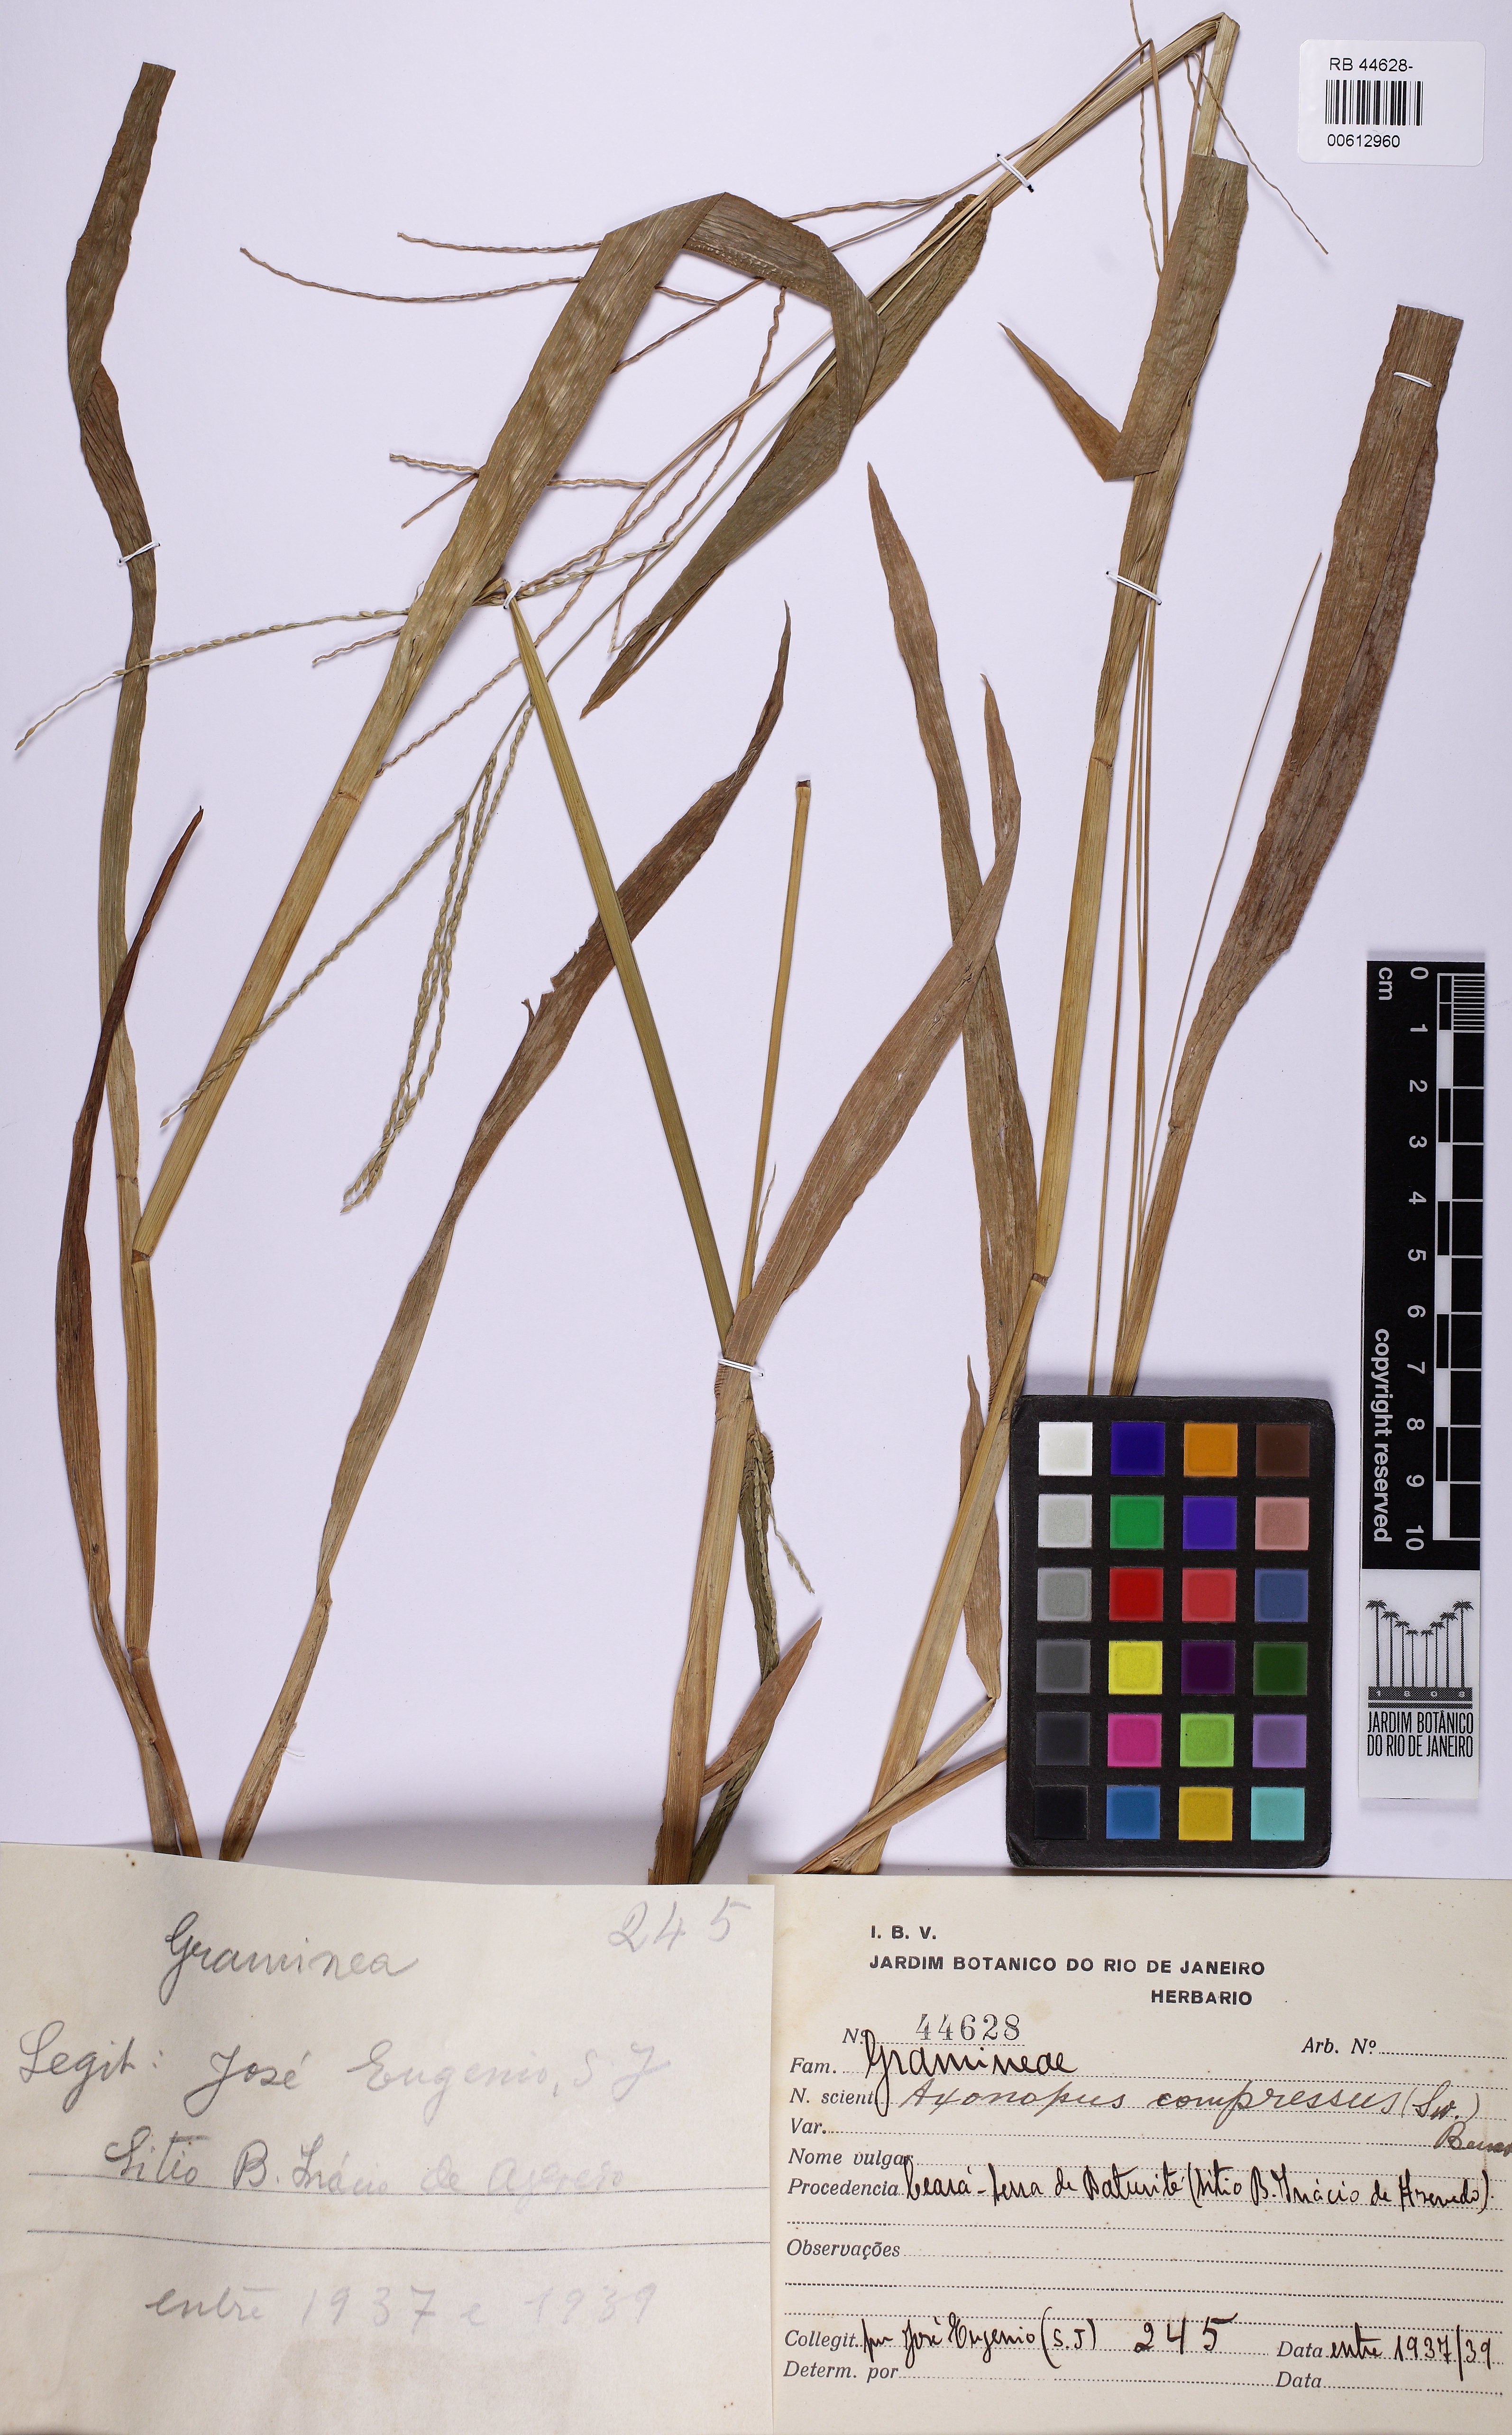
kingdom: Plantae
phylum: Tracheophyta
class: Liliopsida
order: Poales
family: Poaceae
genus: Axonopus
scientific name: Axonopus compressus
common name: American carpet grass
